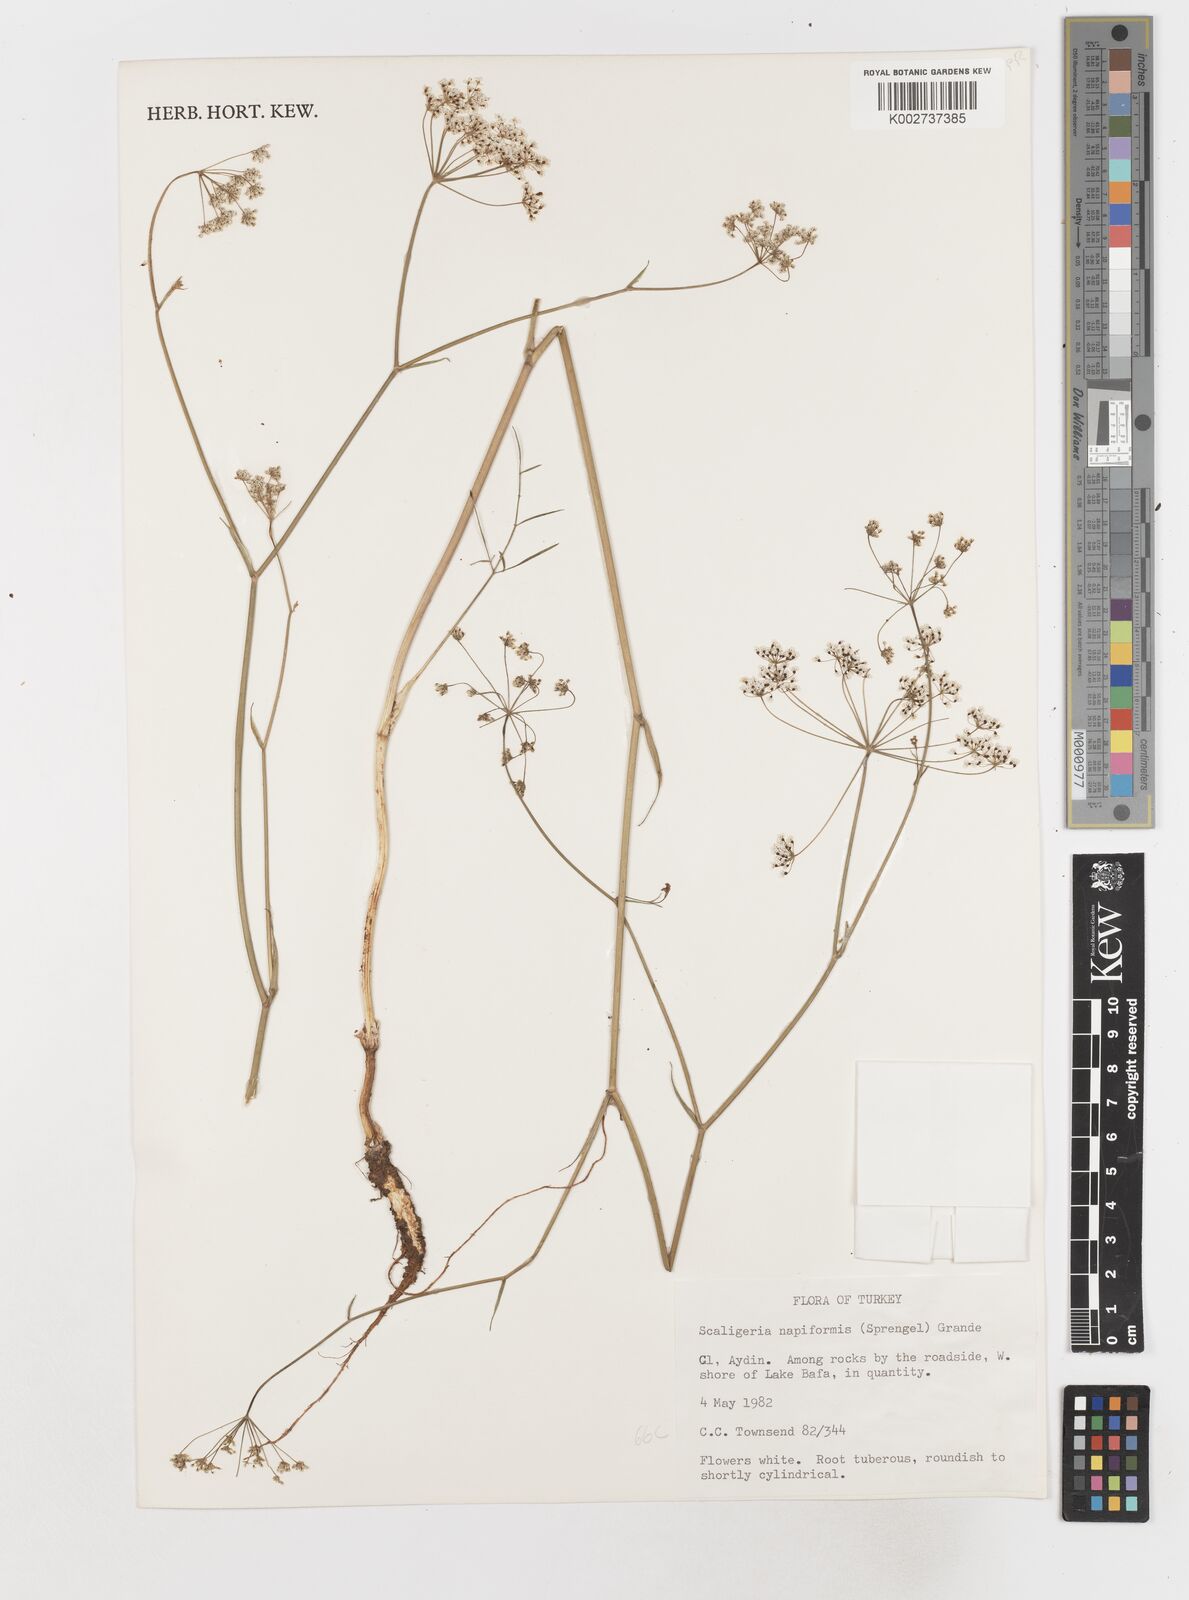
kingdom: Plantae
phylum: Tracheophyta
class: Magnoliopsida
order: Apiales
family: Apiaceae
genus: Scaligeria
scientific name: Scaligeria
